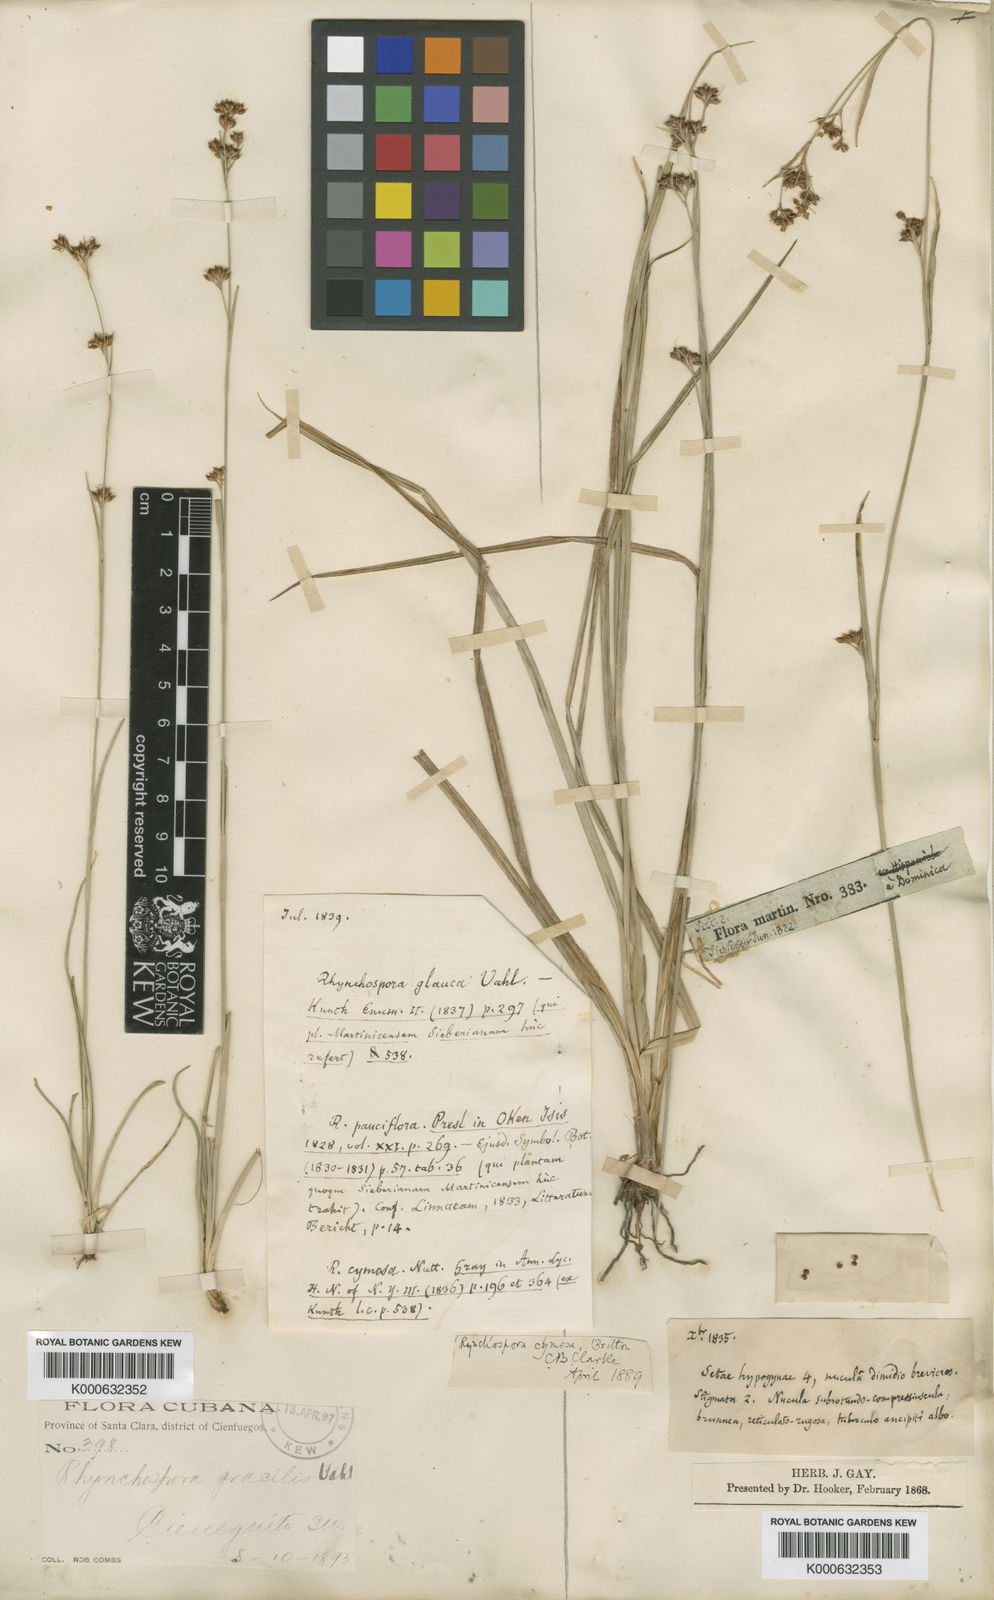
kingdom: Plantae
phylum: Tracheophyta
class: Liliopsida
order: Poales
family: Cyperaceae
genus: Rhynchospora
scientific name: Rhynchospora
